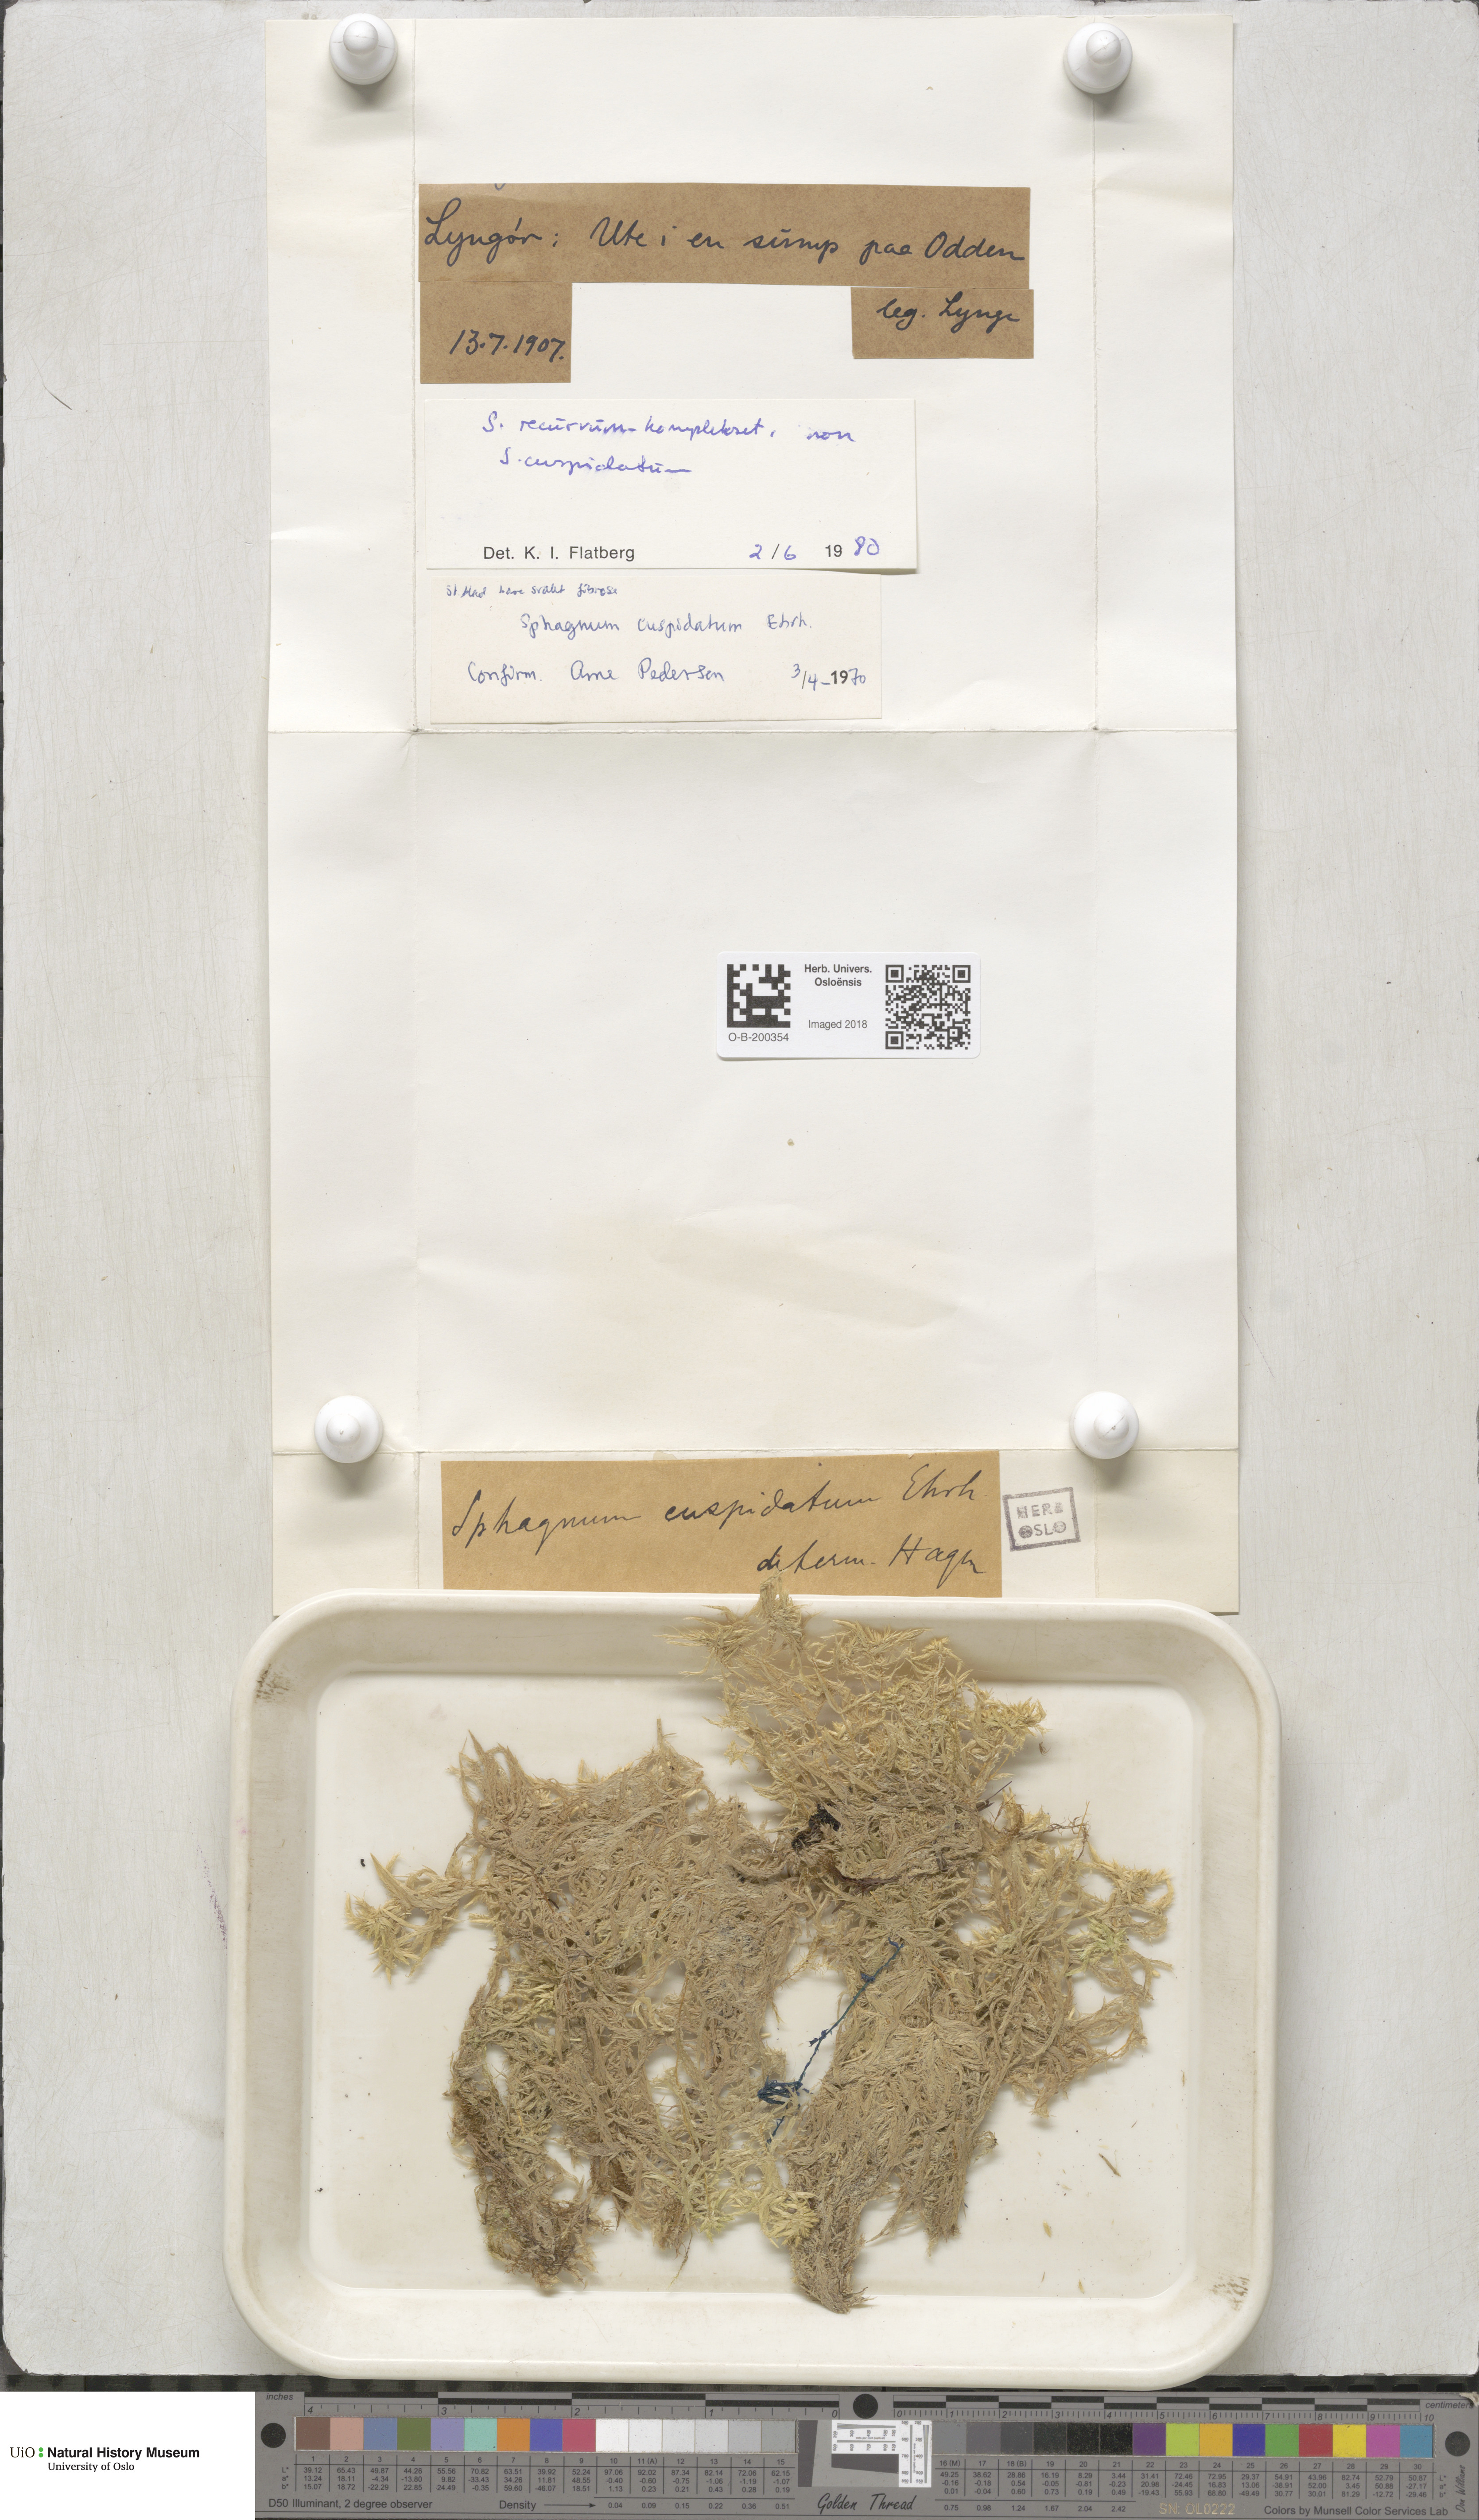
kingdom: Plantae
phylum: Bryophyta
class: Sphagnopsida
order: Sphagnales
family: Sphagnaceae
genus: Sphagnum
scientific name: Sphagnum fallax
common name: Flat-top peat moss
